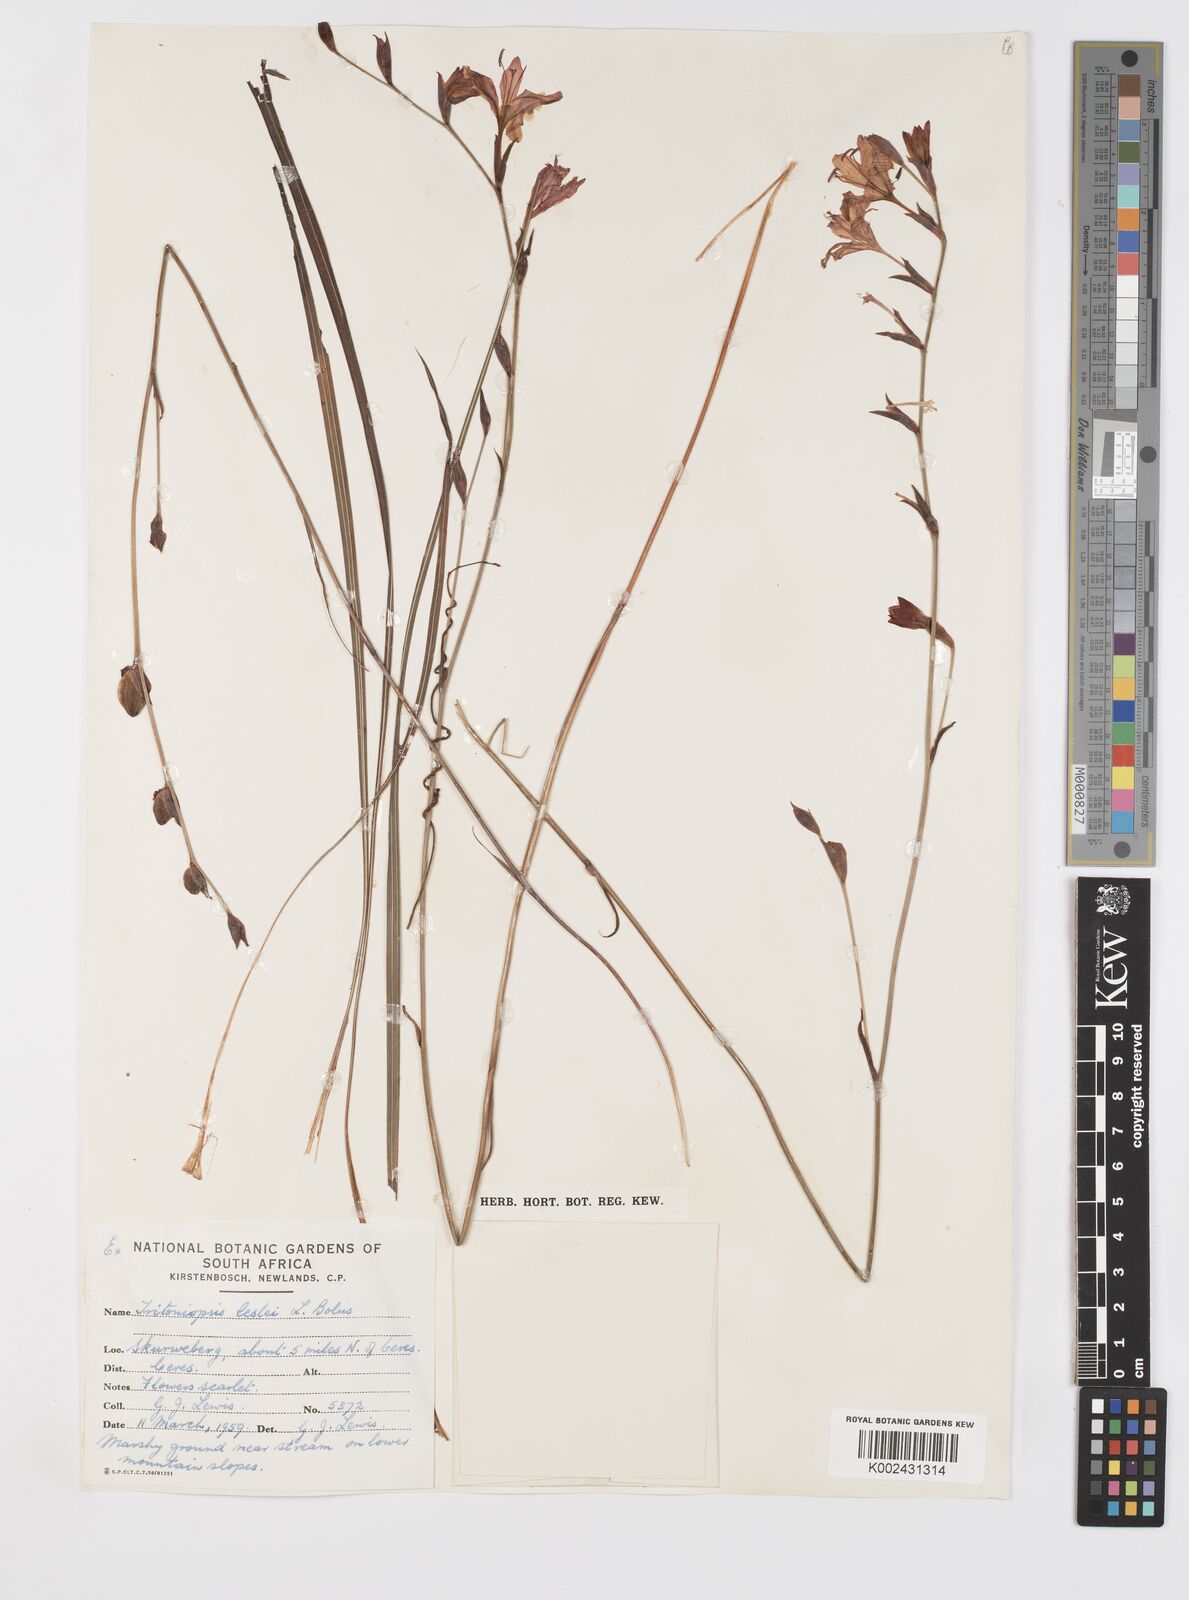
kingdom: Plantae
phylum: Tracheophyta
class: Liliopsida
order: Asparagales
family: Iridaceae
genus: Tritoniopsis
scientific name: Tritoniopsis lesliei
